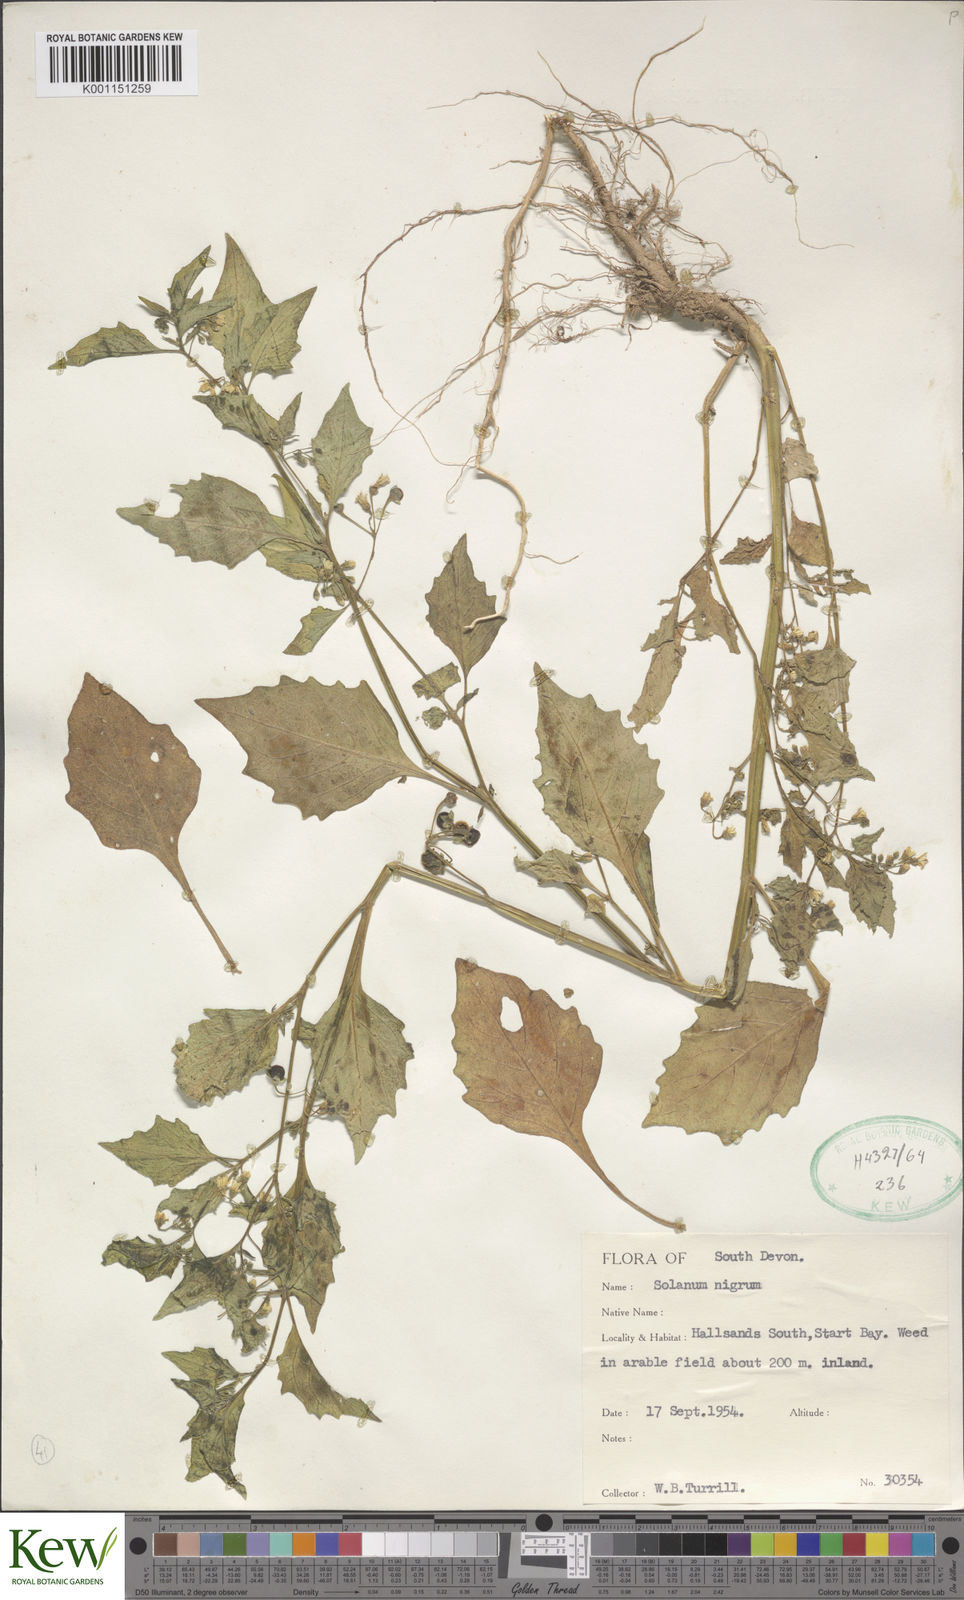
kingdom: Plantae
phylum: Tracheophyta
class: Magnoliopsida
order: Solanales
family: Solanaceae
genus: Solanum
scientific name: Solanum nigrum
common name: Black nightshade
